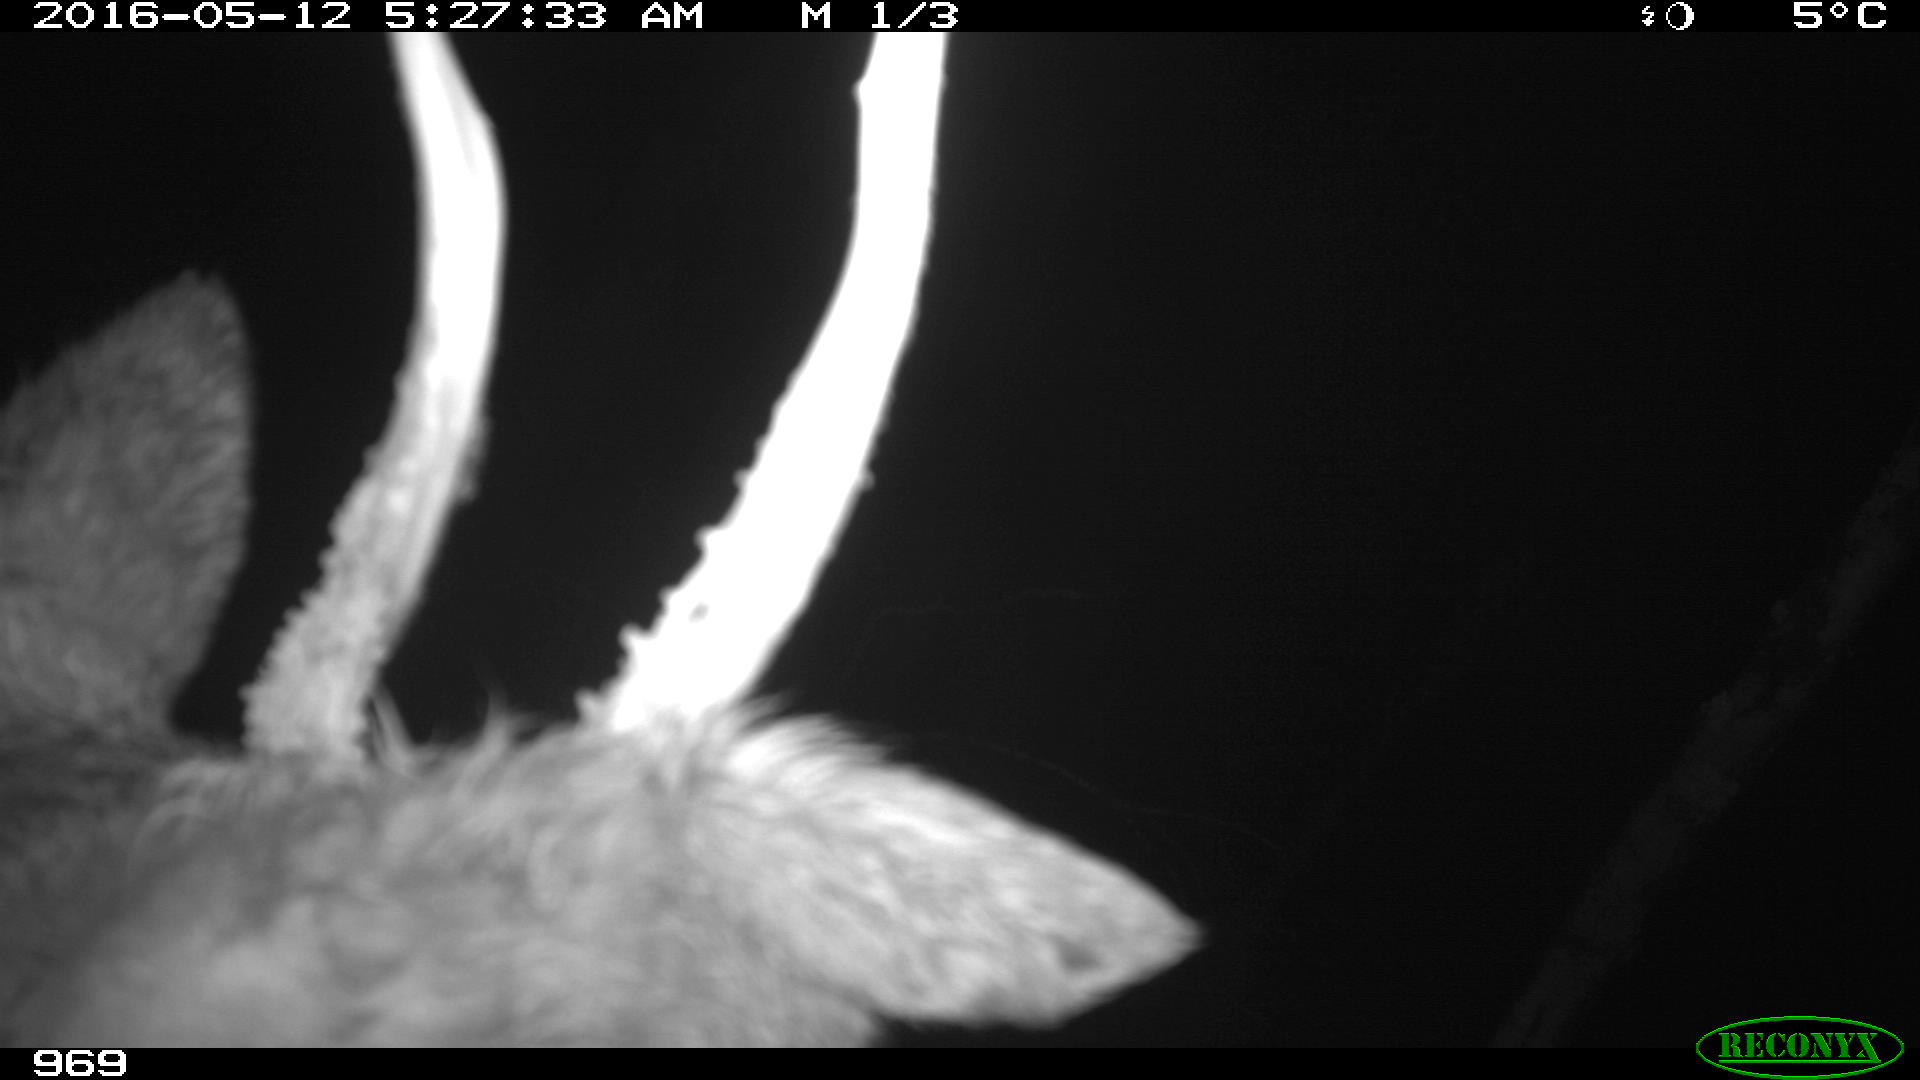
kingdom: Animalia
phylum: Chordata
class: Mammalia
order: Artiodactyla
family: Cervidae
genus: Capreolus
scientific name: Capreolus capreolus
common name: Western roe deer
